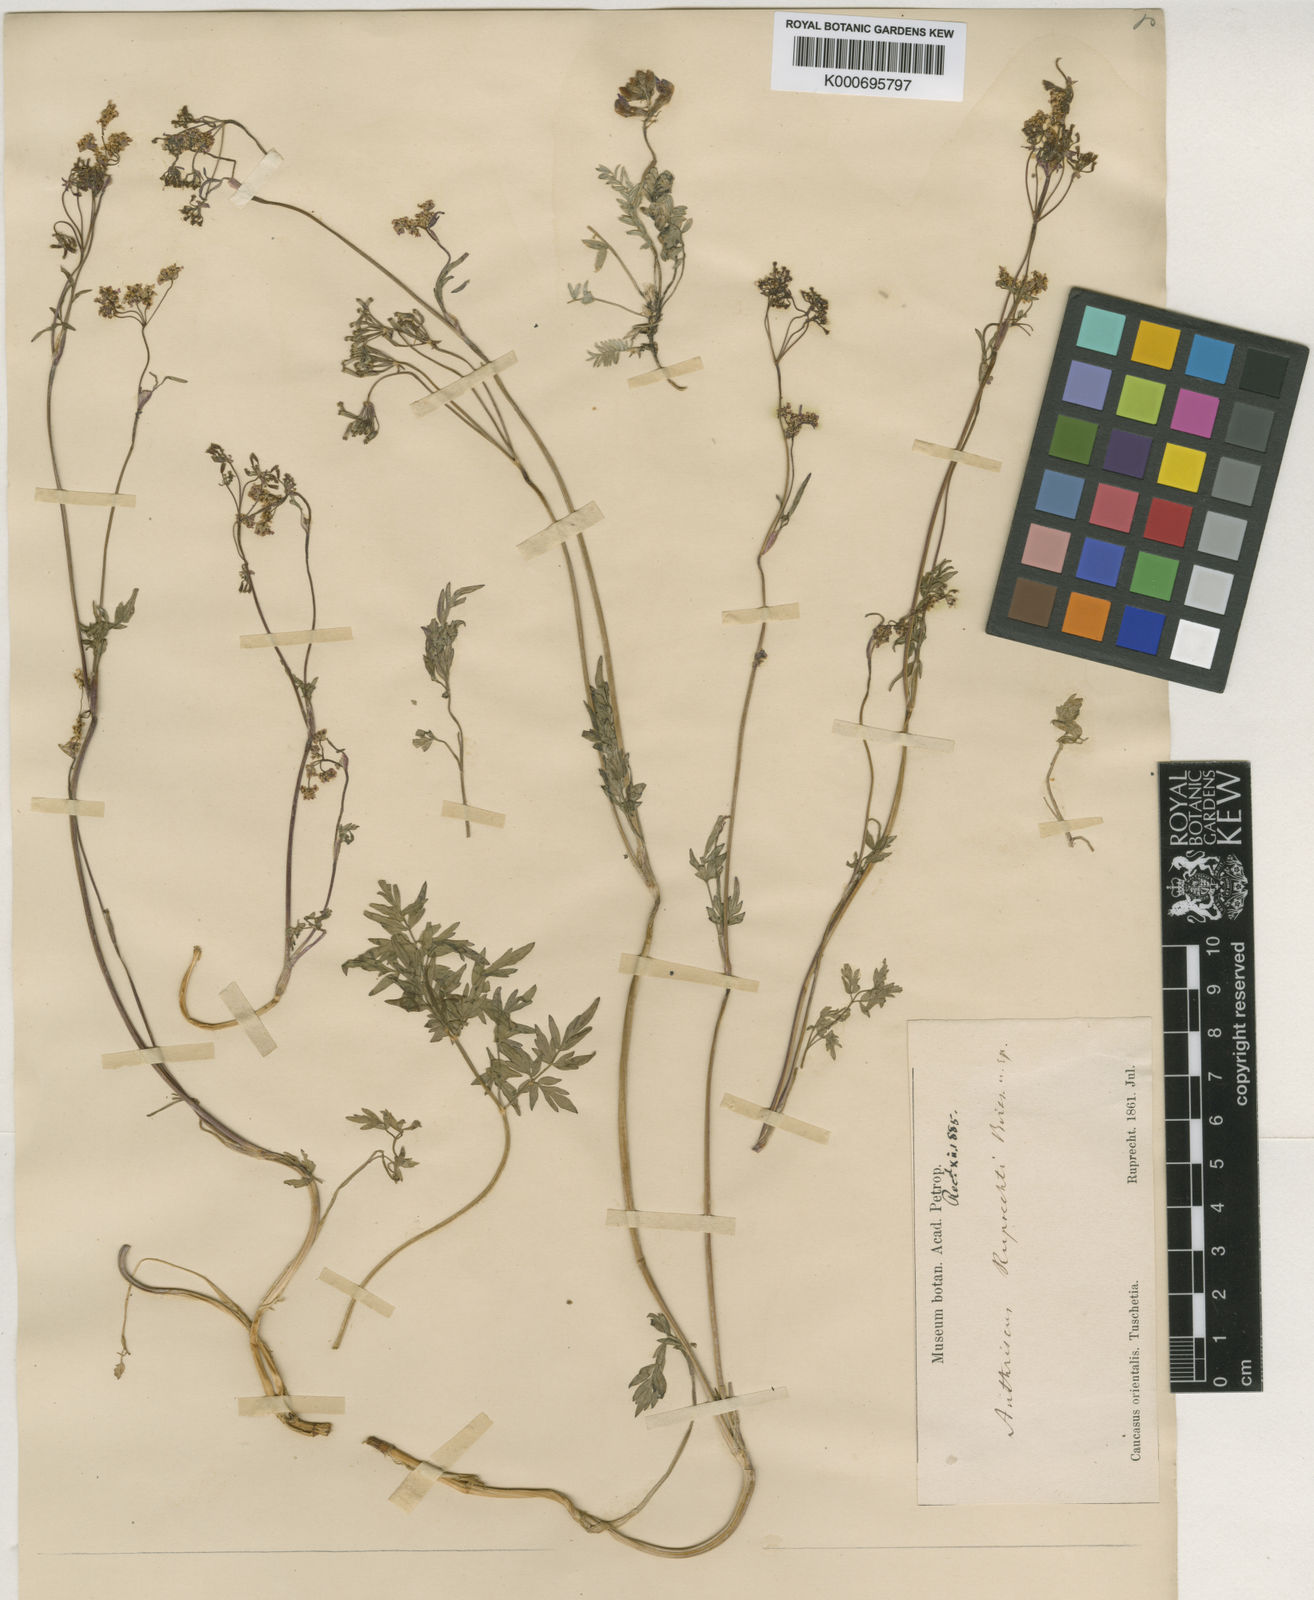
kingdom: Plantae
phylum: Tracheophyta
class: Magnoliopsida
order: Apiales
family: Apiaceae
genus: Anthriscus
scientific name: Anthriscus ruprechtii
